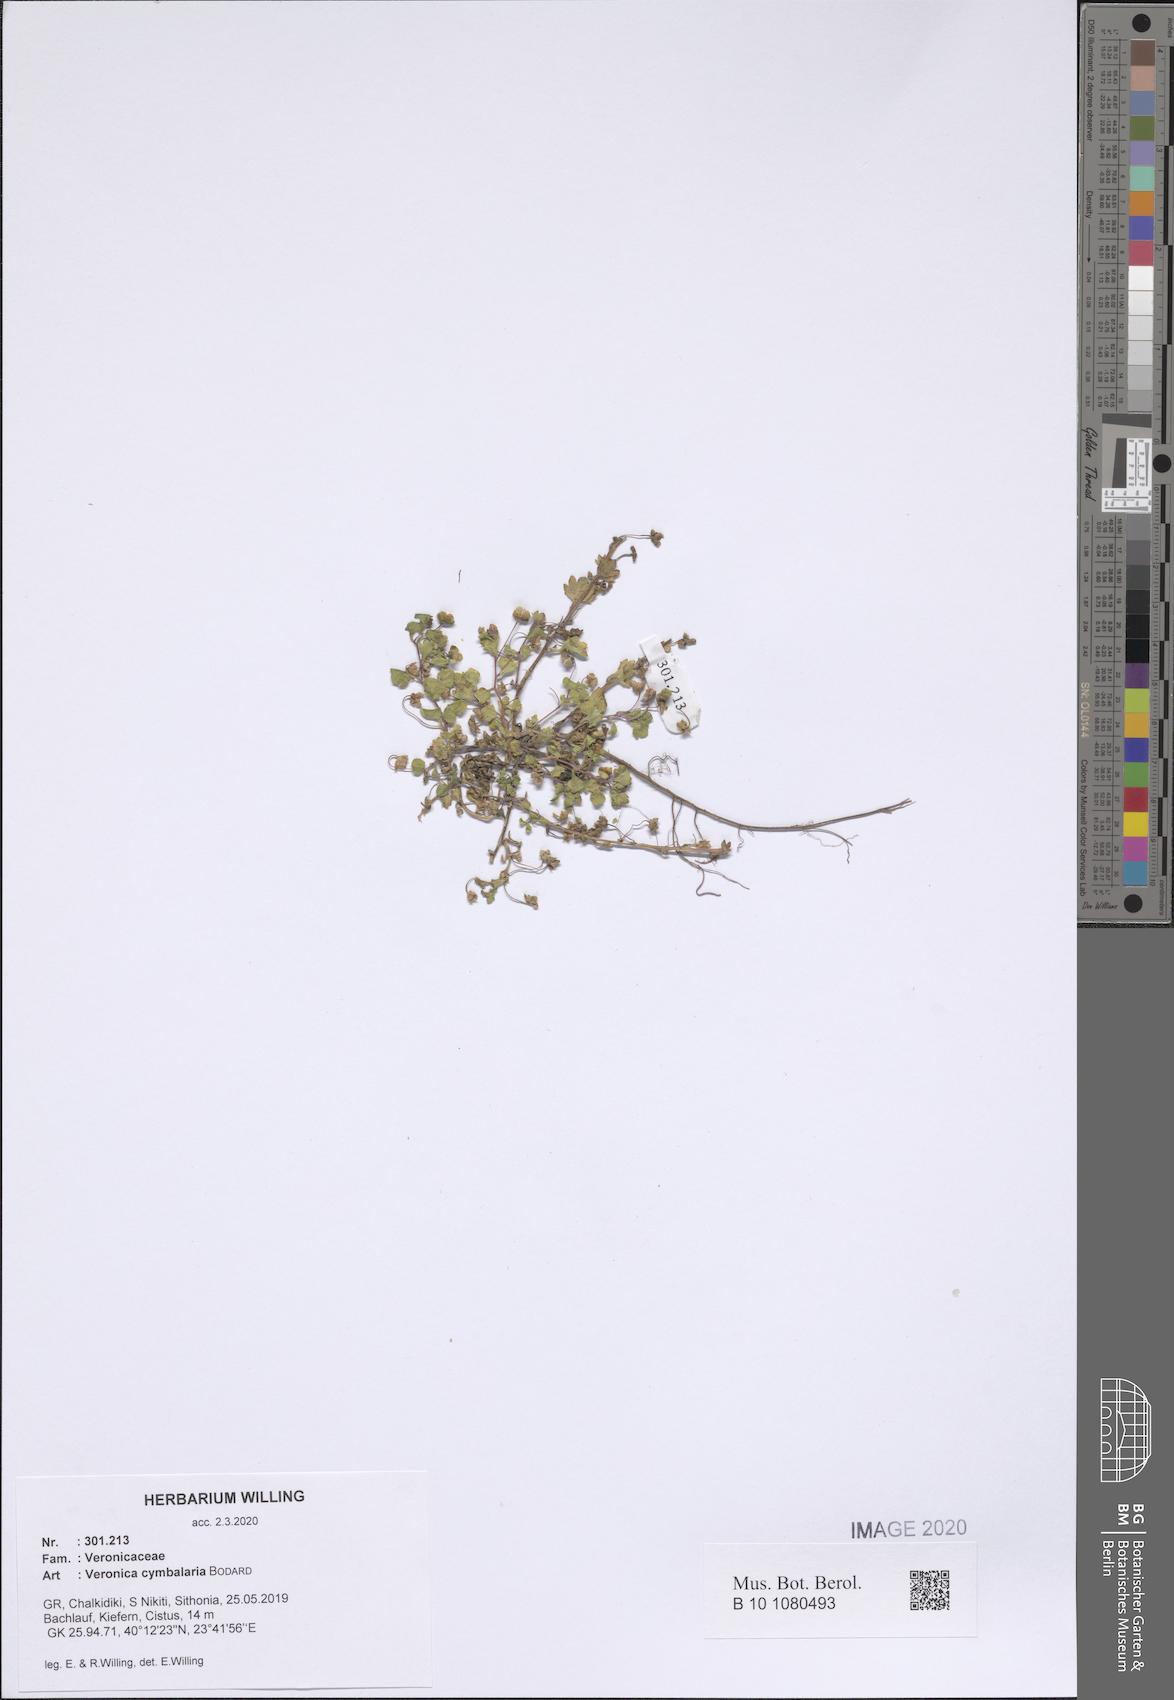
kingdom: Plantae
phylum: Tracheophyta
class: Magnoliopsida
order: Lamiales
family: Plantaginaceae
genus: Veronica
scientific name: Veronica cymbalaria
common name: Pale speedwell
